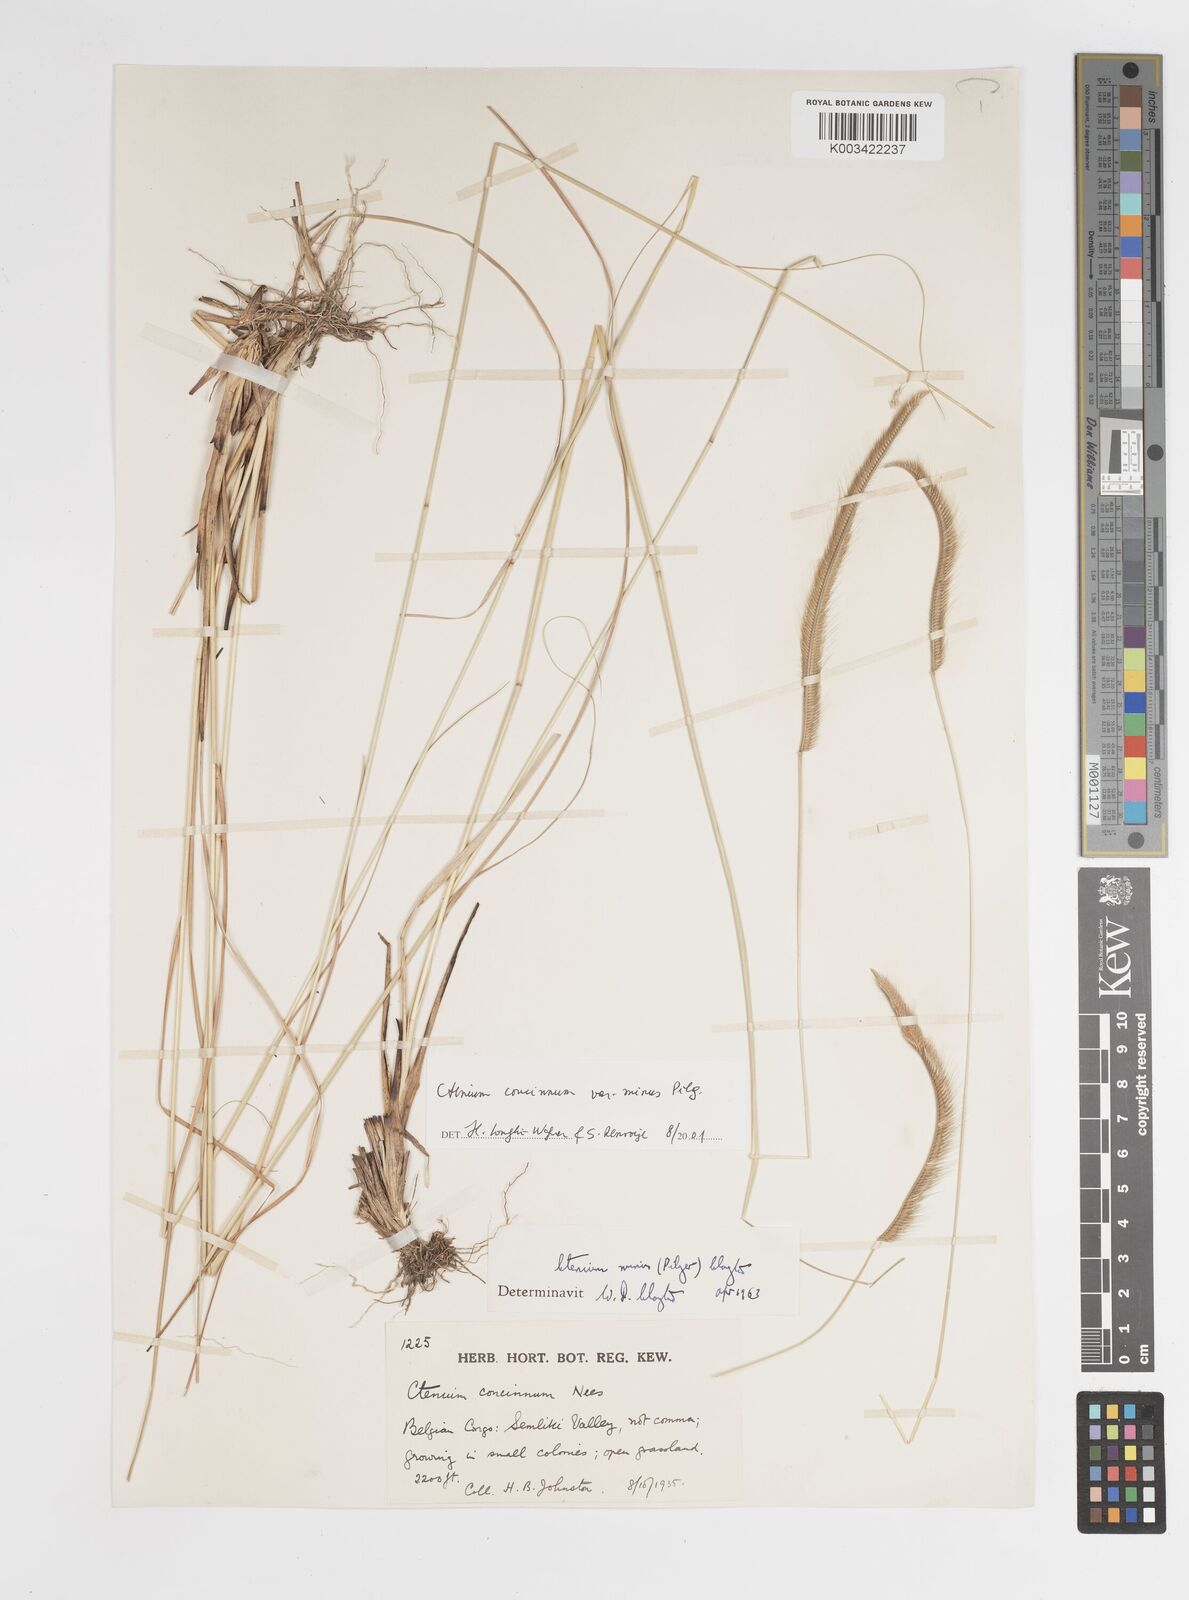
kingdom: Plantae
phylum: Tracheophyta
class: Liliopsida
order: Poales
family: Poaceae
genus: Ctenium
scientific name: Ctenium concinnum
